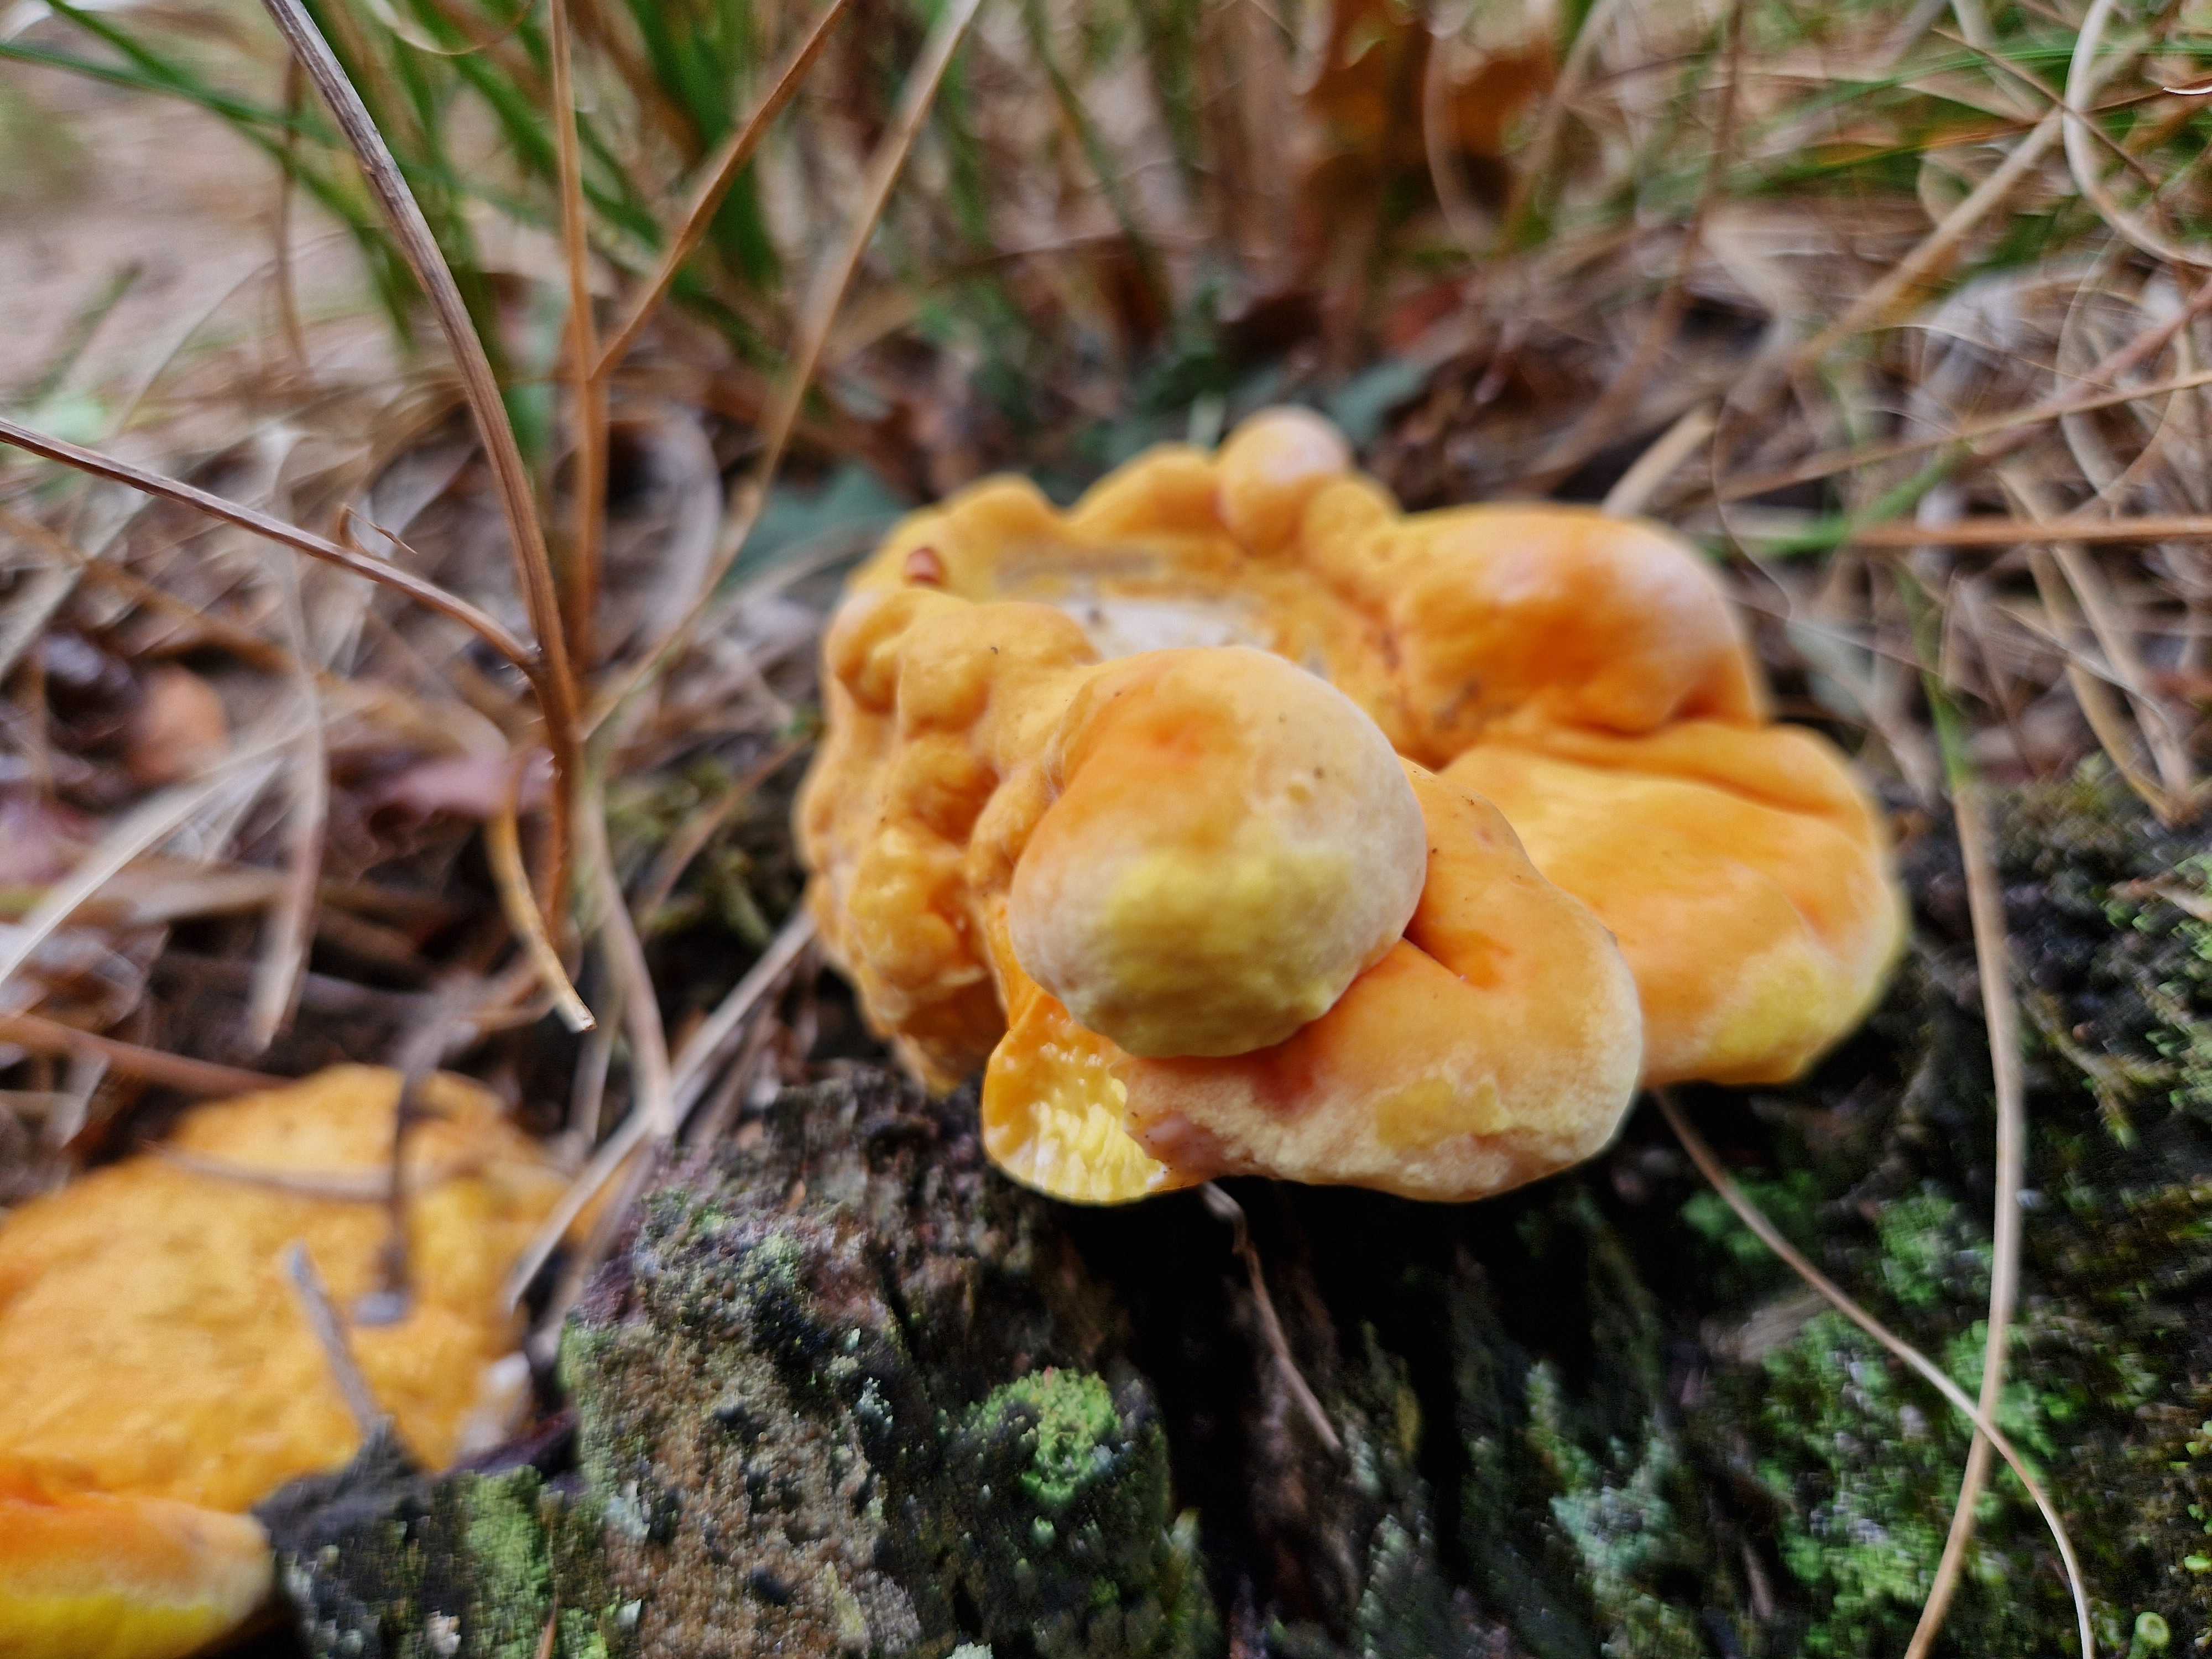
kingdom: Fungi
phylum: Basidiomycota
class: Agaricomycetes
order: Polyporales
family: Laetiporaceae
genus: Laetiporus
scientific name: Laetiporus sulphureus
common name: svovlporesvamp
